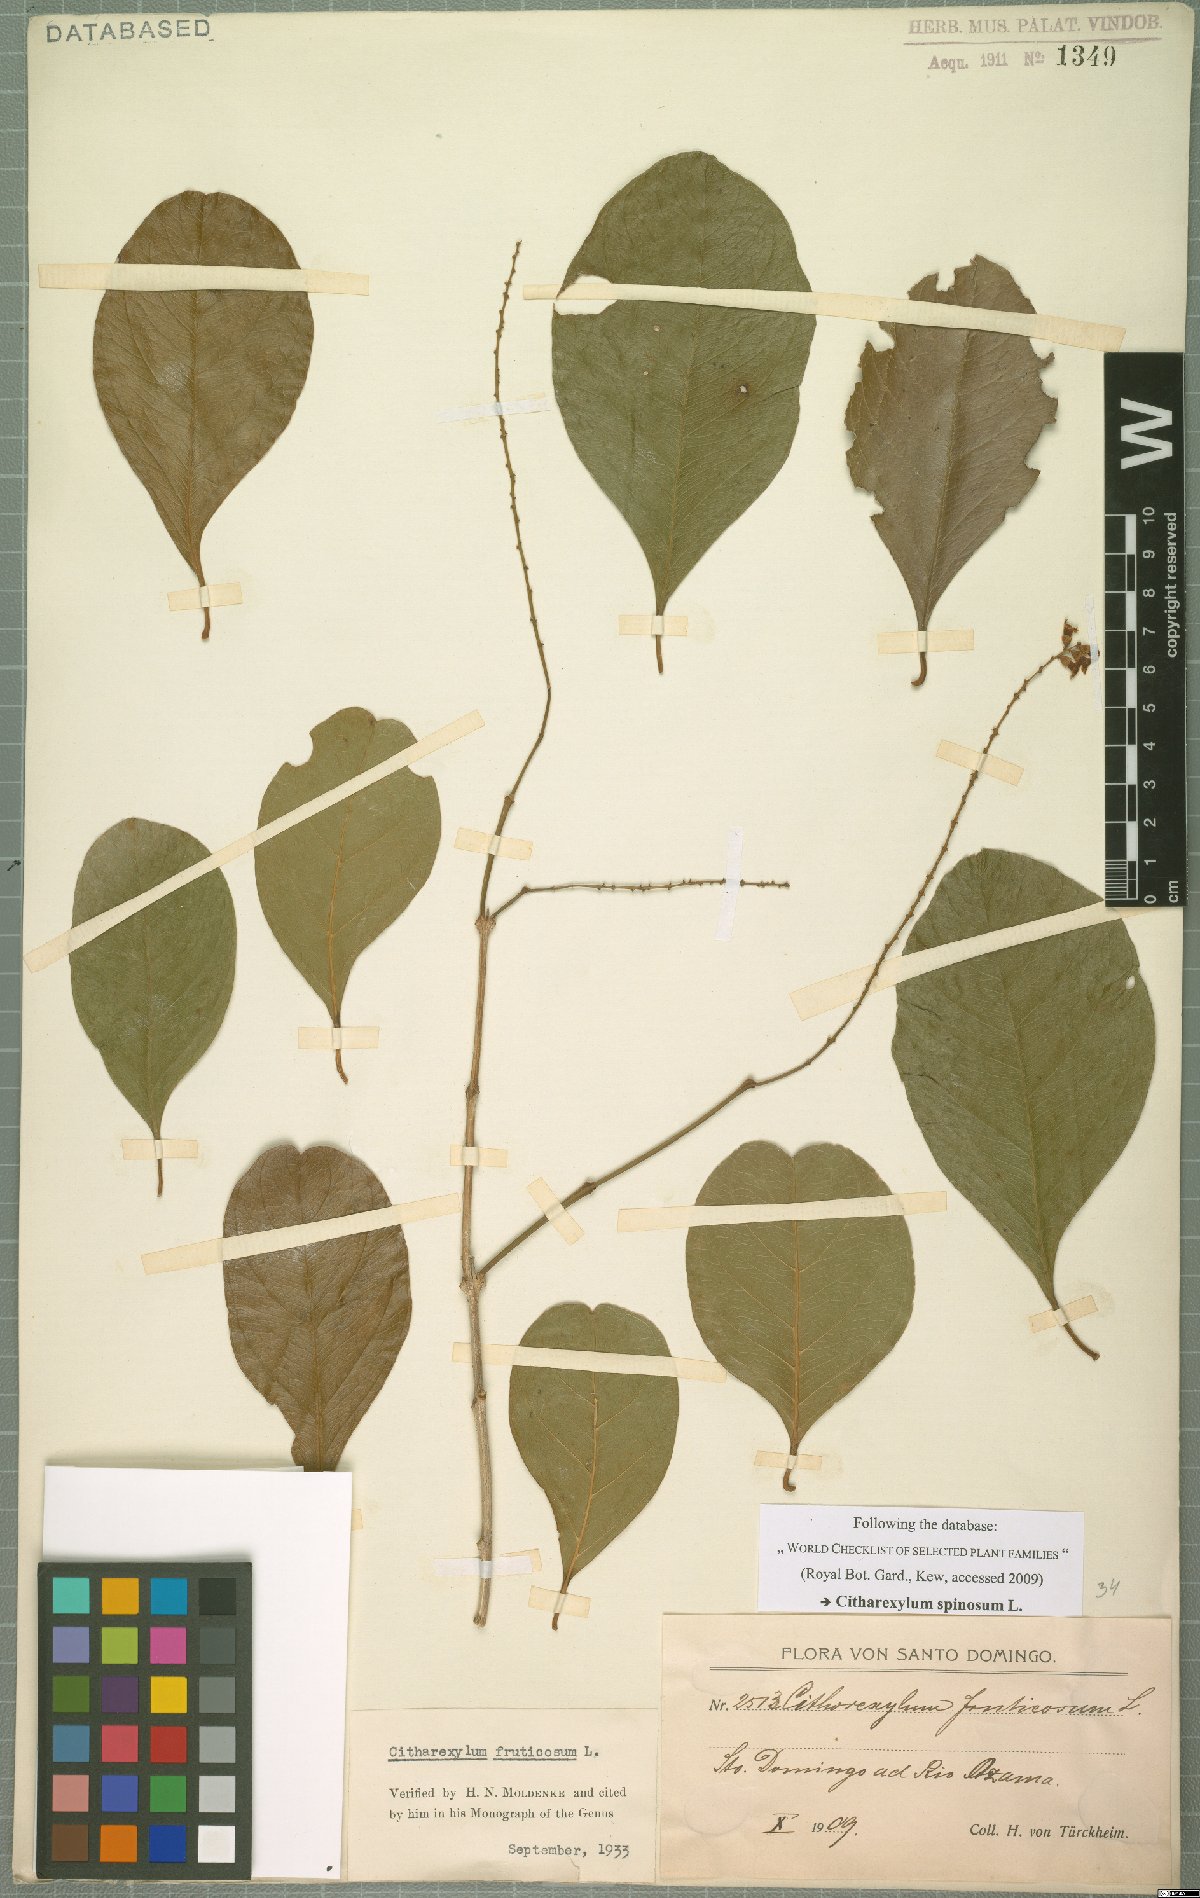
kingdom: Plantae
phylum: Tracheophyta
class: Magnoliopsida
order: Lamiales
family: Verbenaceae
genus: Citharexylum
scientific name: Citharexylum spinosum
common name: Fiddlewood
